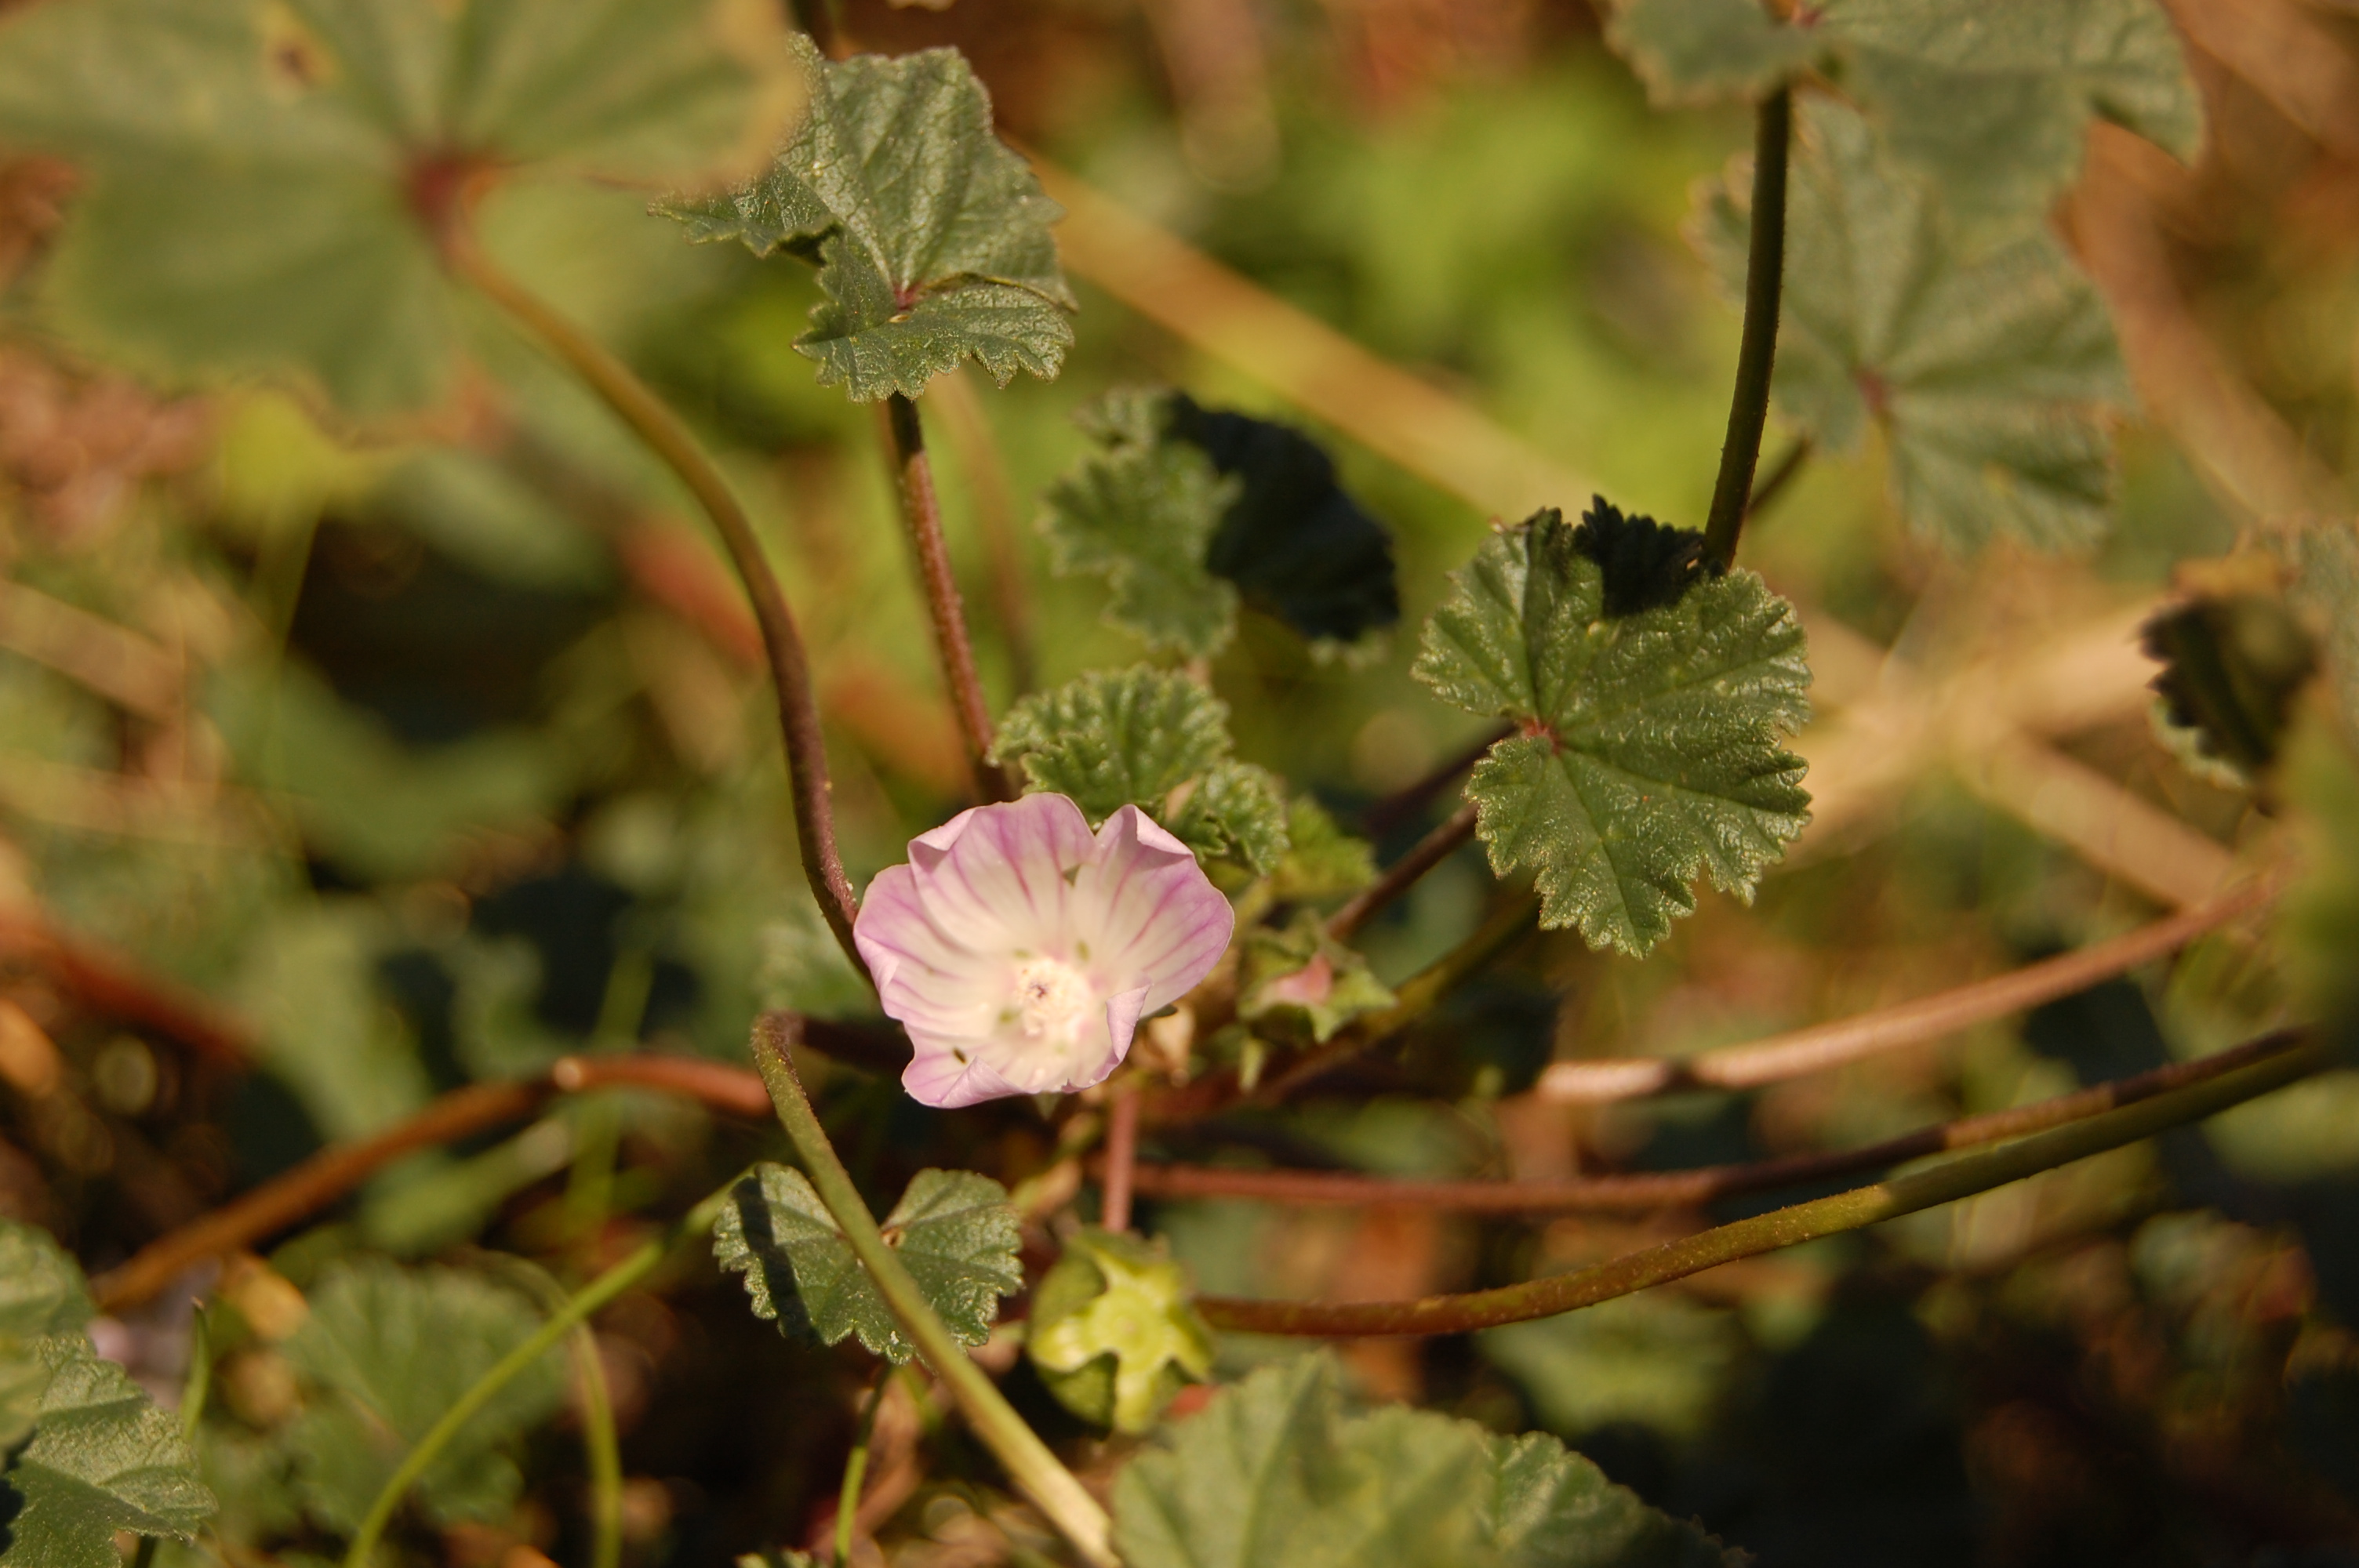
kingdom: Plantae
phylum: Tracheophyta
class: Magnoliopsida
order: Malvales
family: Malvaceae
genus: Malva
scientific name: Malva neglecta
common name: Common mallow
